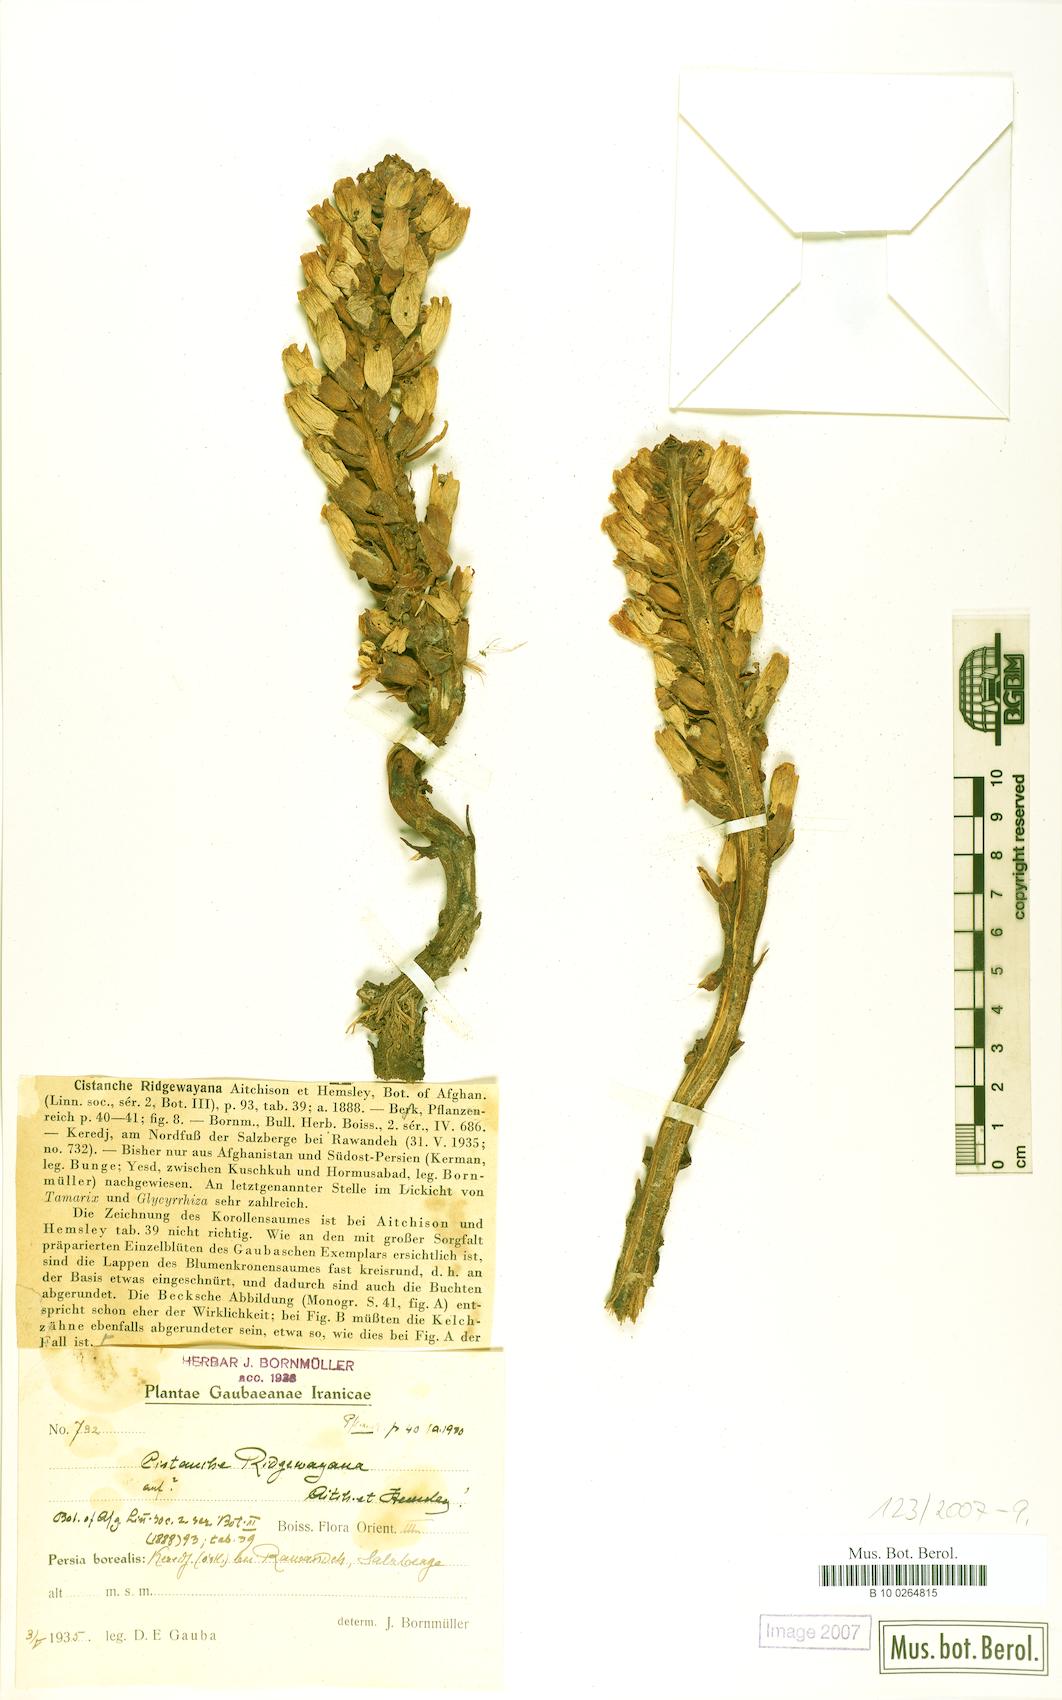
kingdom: Plantae
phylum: Tracheophyta
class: Magnoliopsida
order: Lamiales
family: Orobanchaceae
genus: Cistanche
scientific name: Cistanche tomentosa
